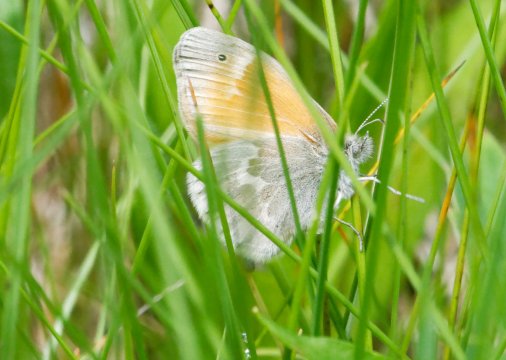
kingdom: Animalia
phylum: Arthropoda
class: Insecta
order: Lepidoptera
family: Nymphalidae
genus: Coenonympha
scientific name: Coenonympha tullia
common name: Large Heath
